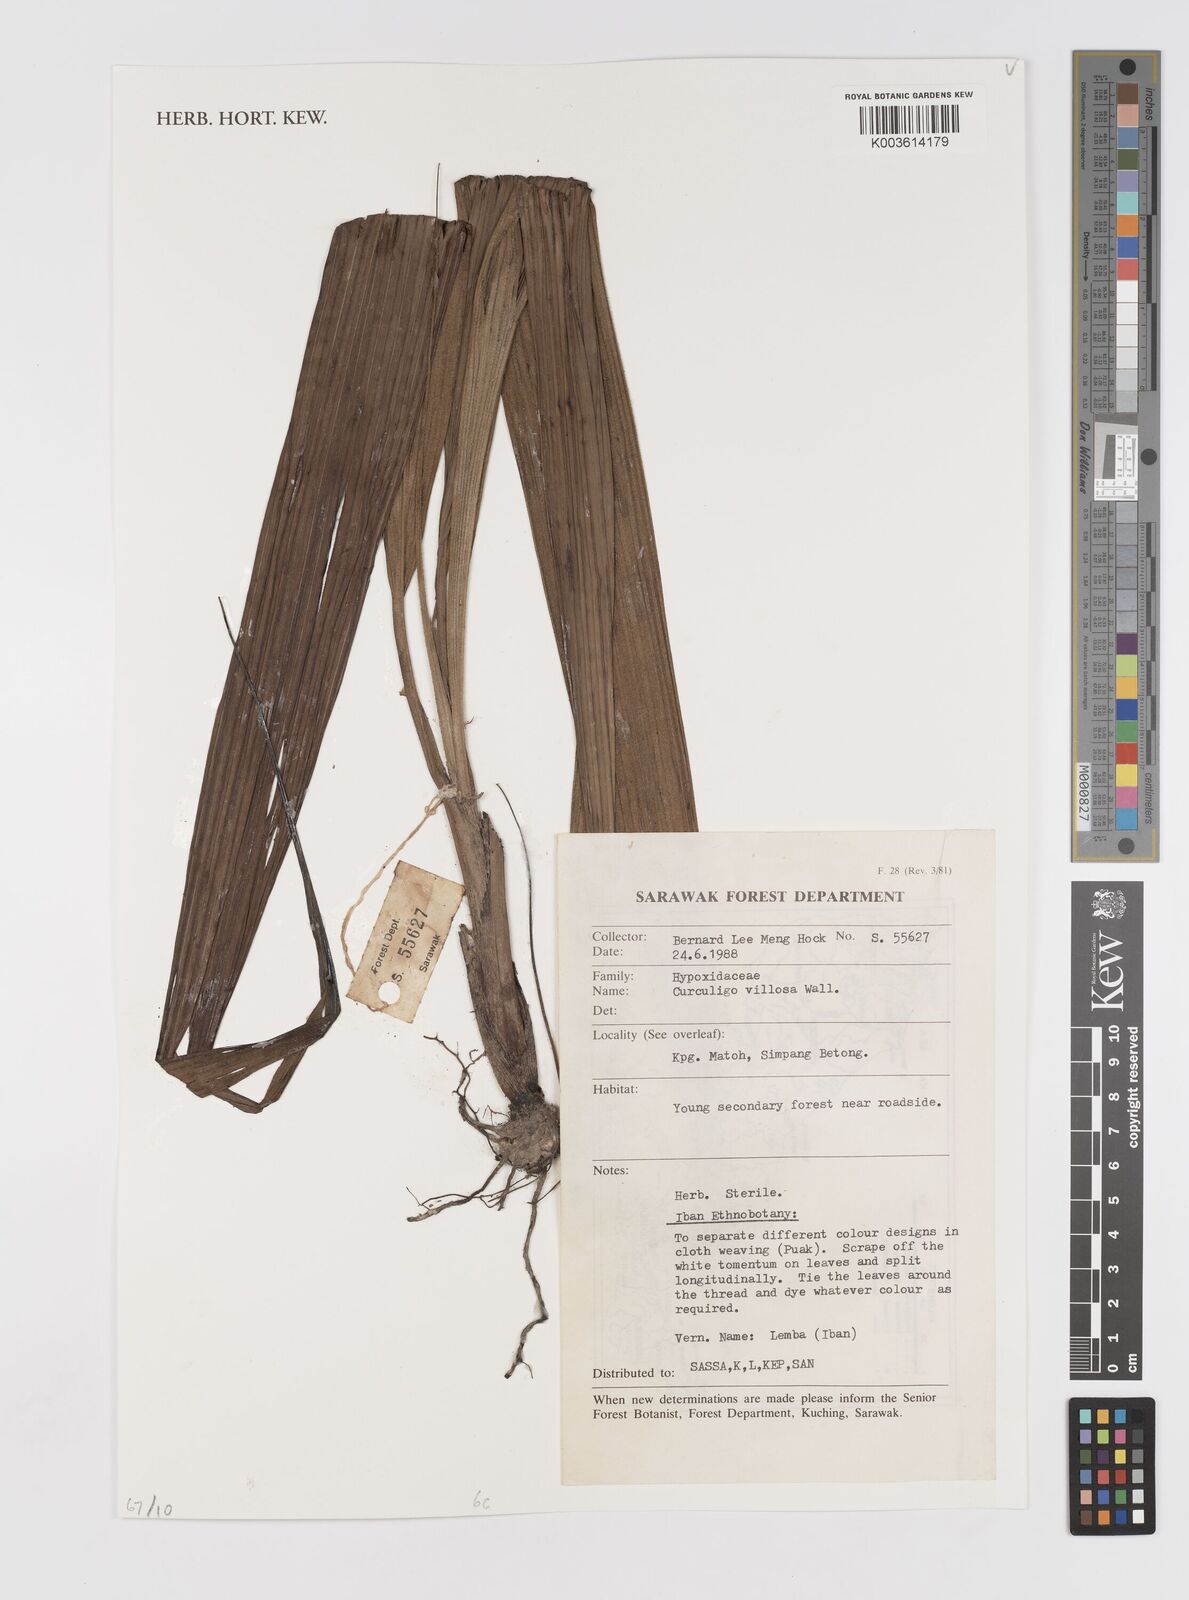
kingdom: Plantae
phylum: Tracheophyta
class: Liliopsida
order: Asparagales
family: Hypoxidaceae
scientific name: Hypoxidaceae
